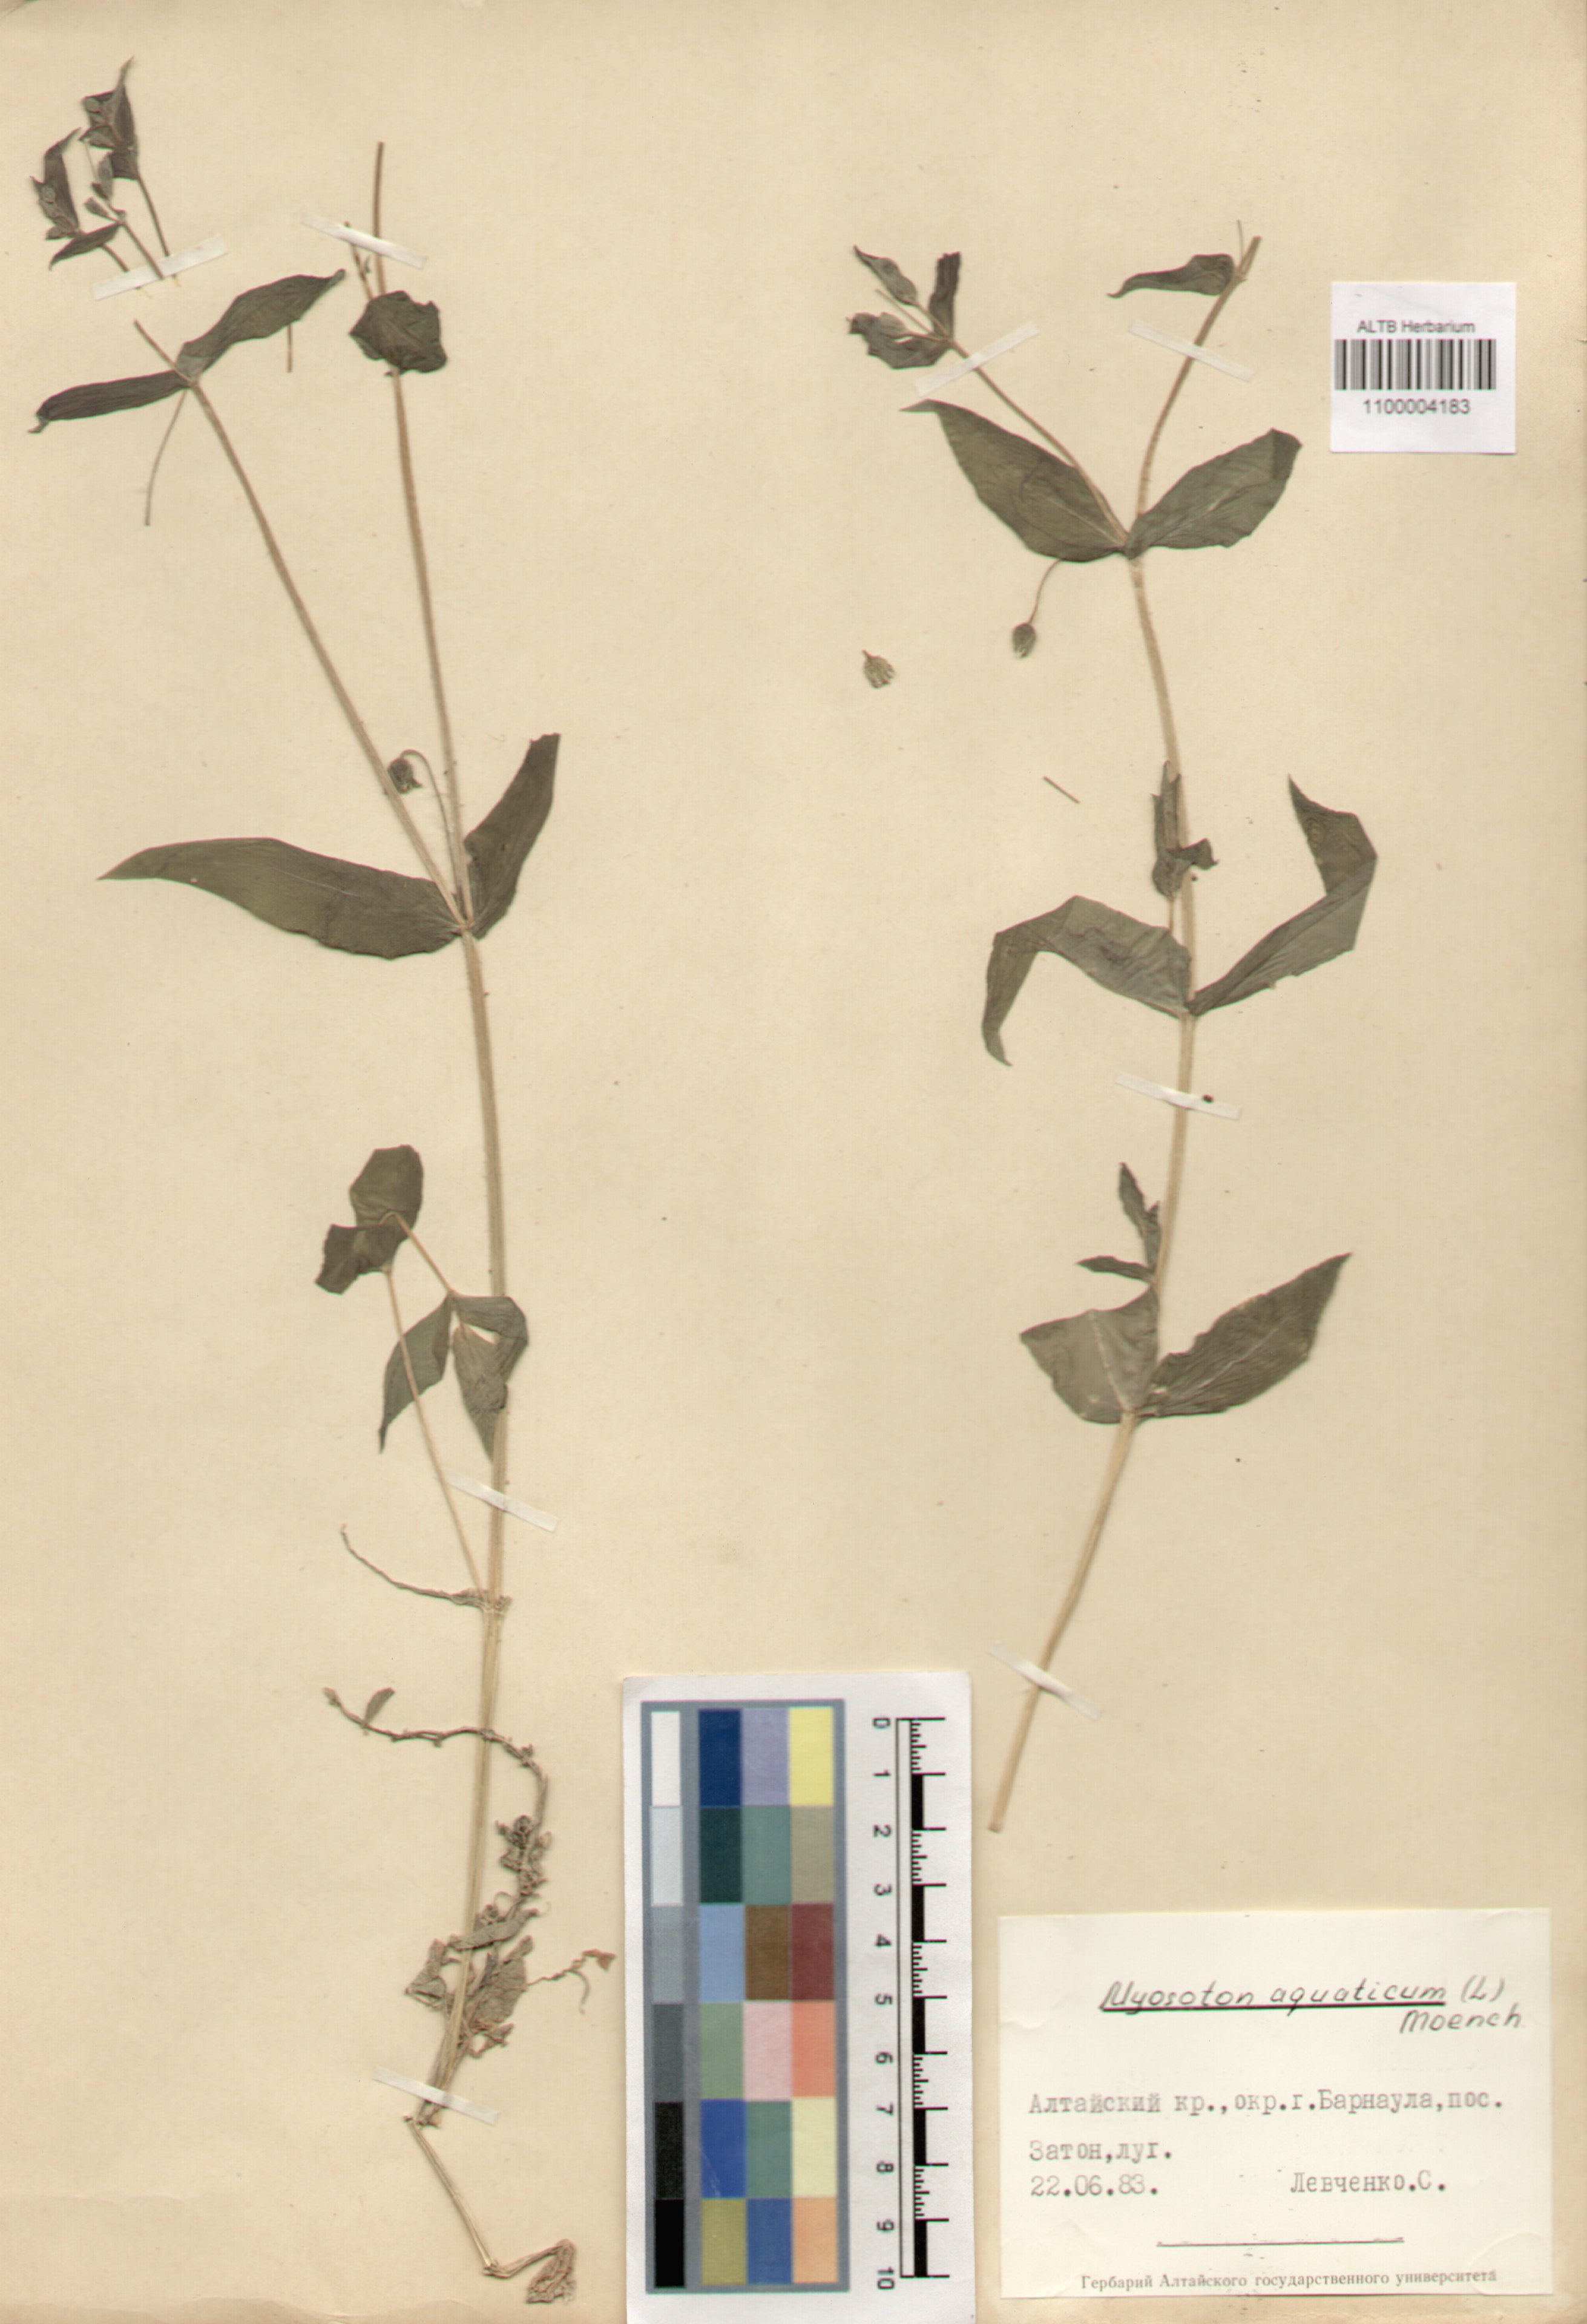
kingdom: Plantae
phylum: Tracheophyta
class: Magnoliopsida
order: Caryophyllales
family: Caryophyllaceae
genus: Stellaria
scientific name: Stellaria aquatica
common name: Water chickweed
